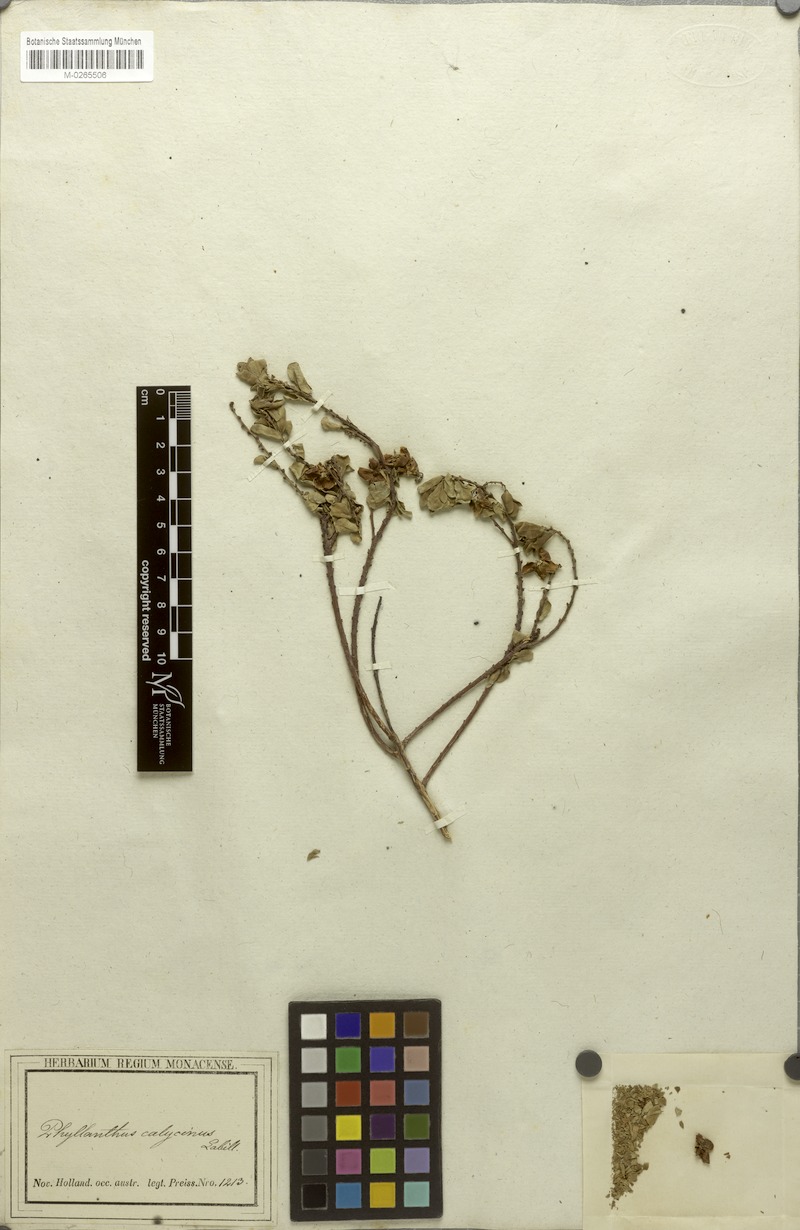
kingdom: Plantae
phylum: Tracheophyta
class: Magnoliopsida
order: Malpighiales
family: Phyllanthaceae
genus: Phyllanthus
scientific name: Phyllanthus calycinus
